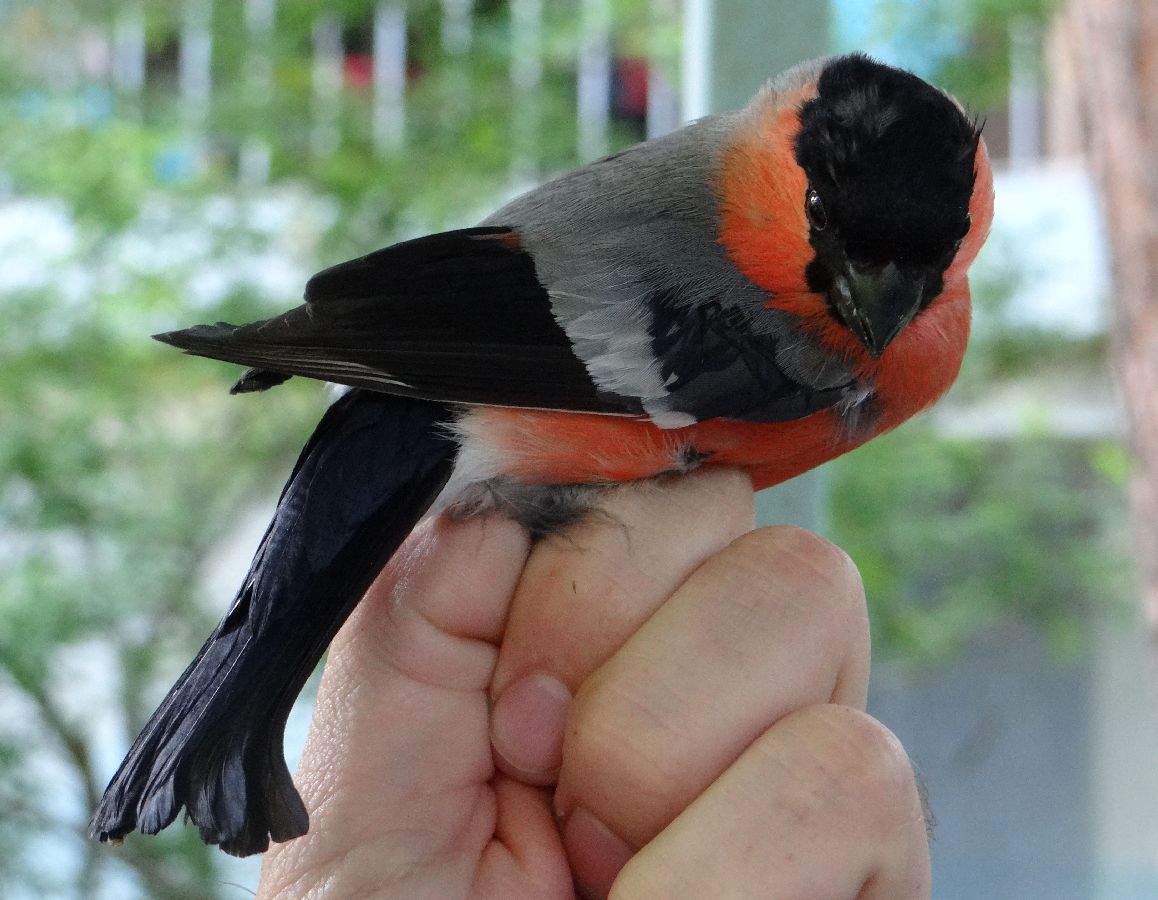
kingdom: Animalia
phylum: Chordata
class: Aves
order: Passeriformes
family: Fringillidae
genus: Pyrrhula
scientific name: Pyrrhula pyrrhula
